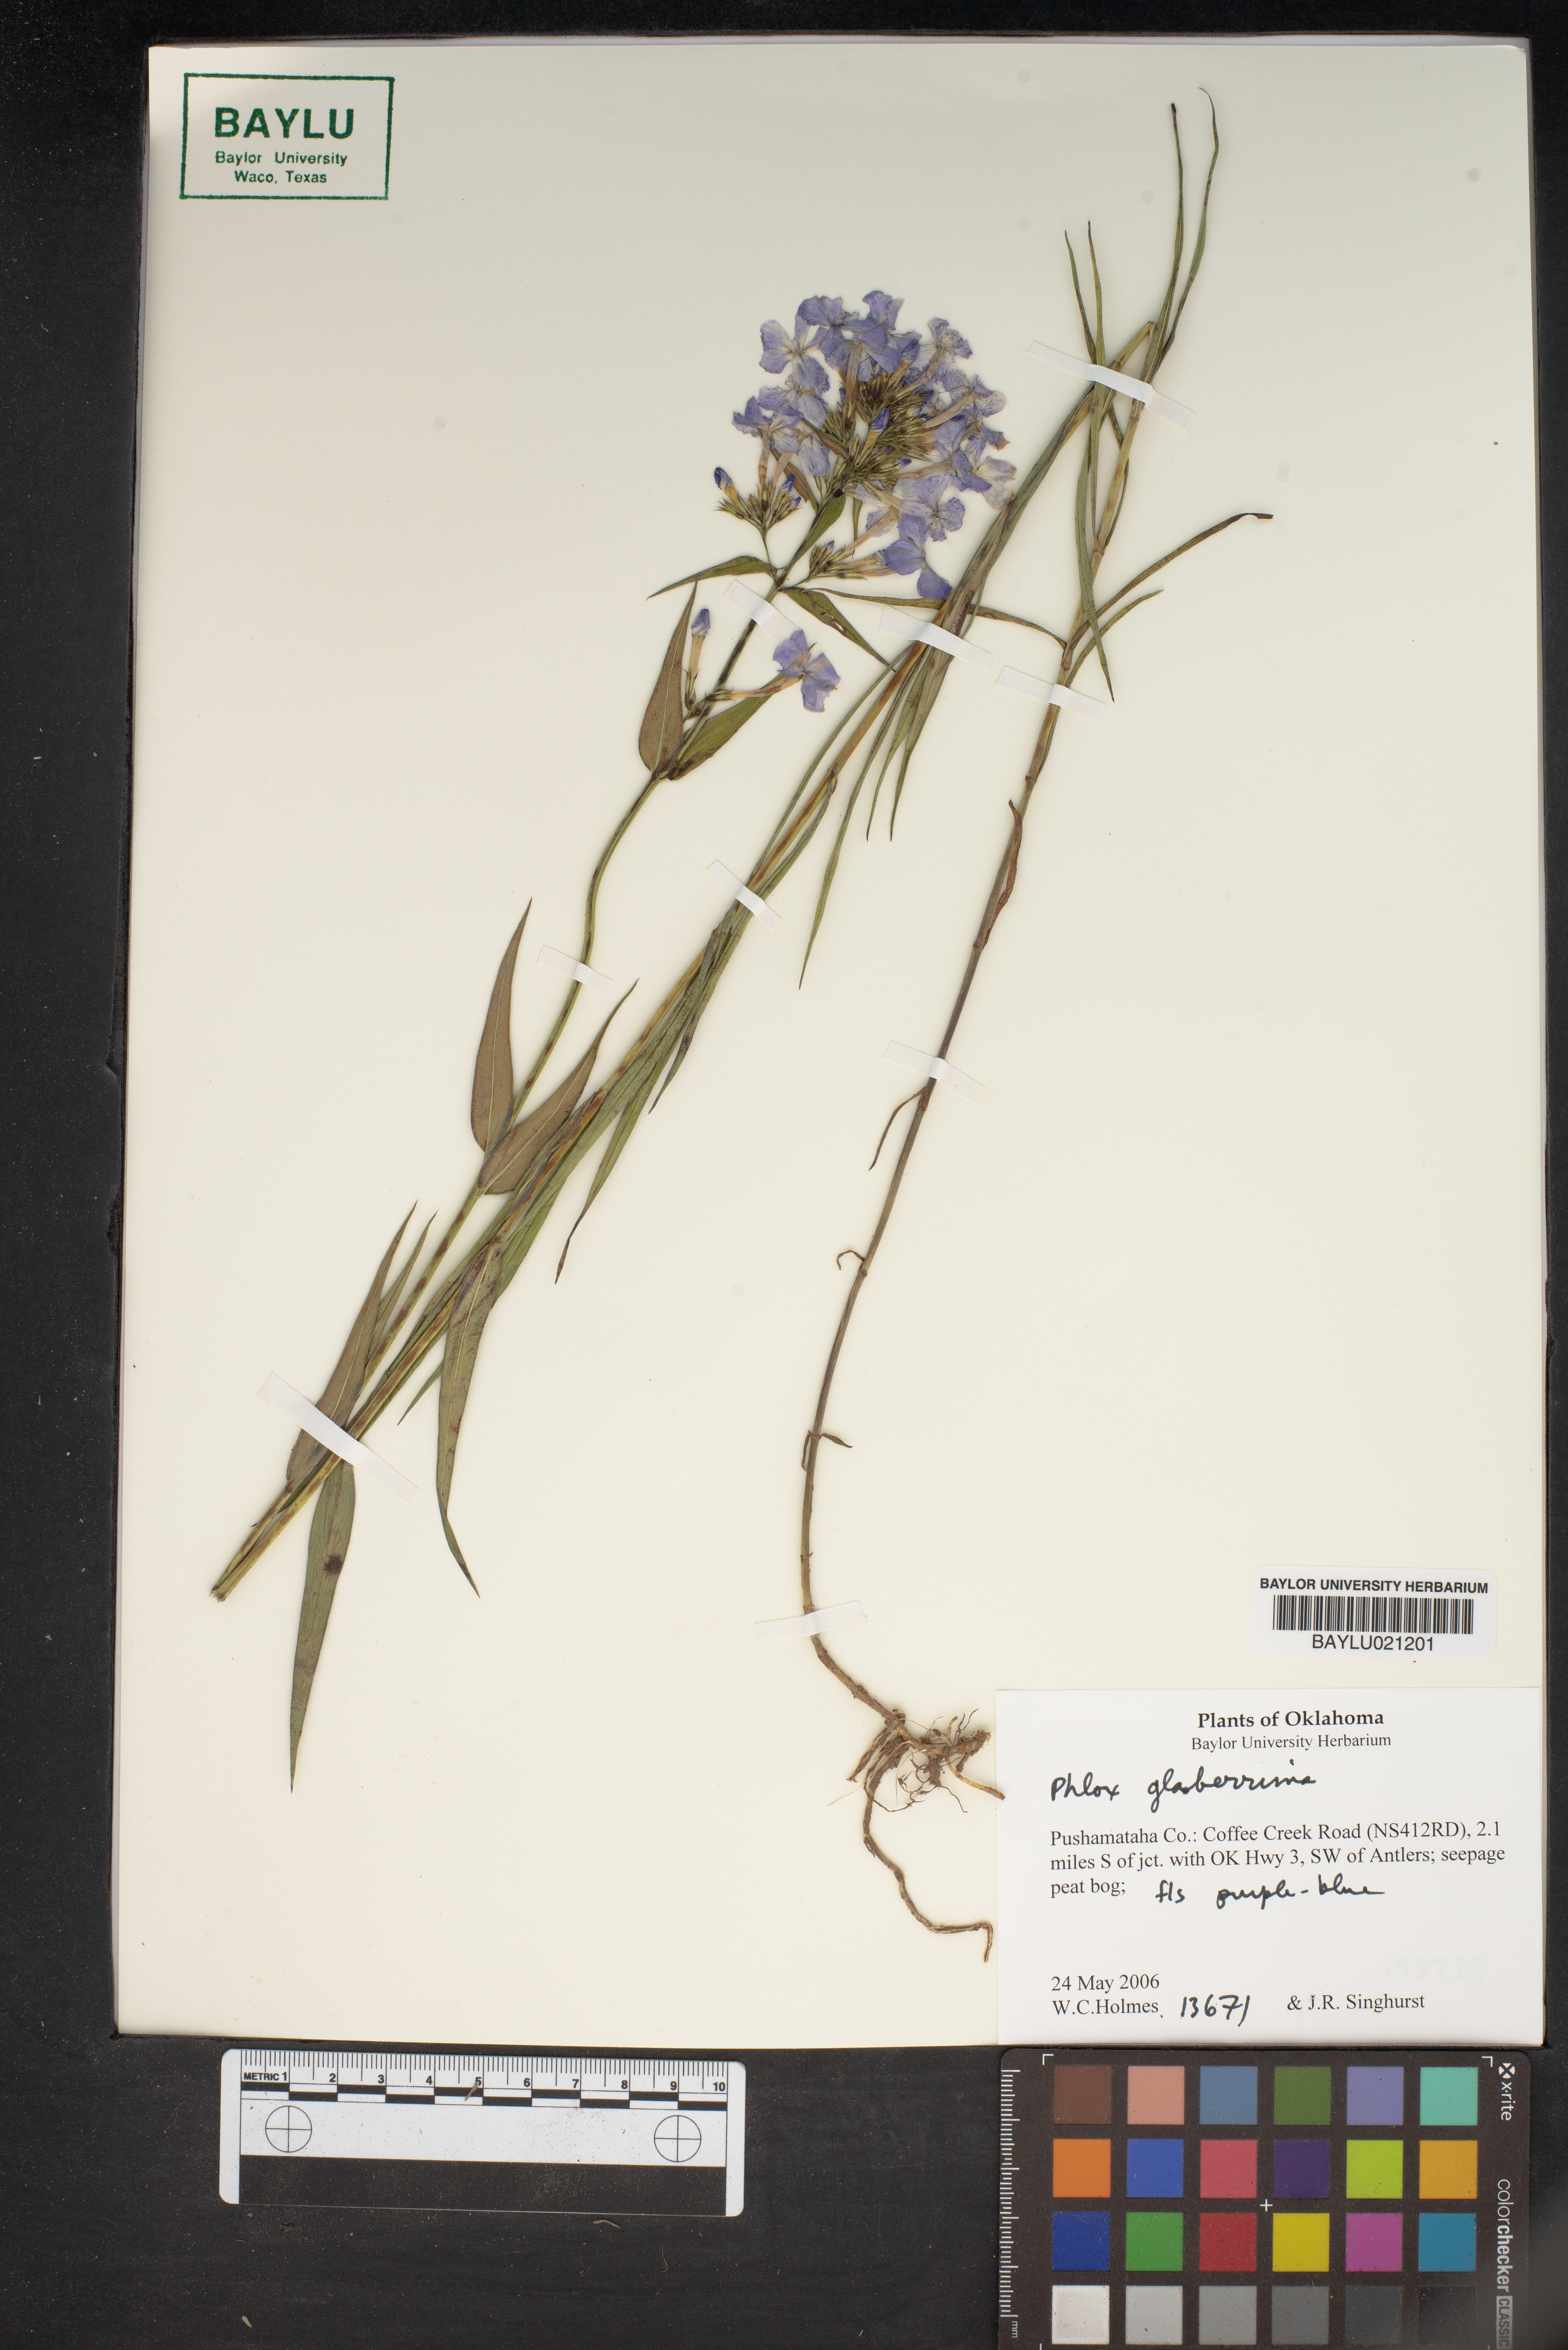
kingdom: Plantae
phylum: Tracheophyta
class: Magnoliopsida
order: Ericales
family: Polemoniaceae
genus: Phlox
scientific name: Phlox glaberrima
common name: Smooth phlox
